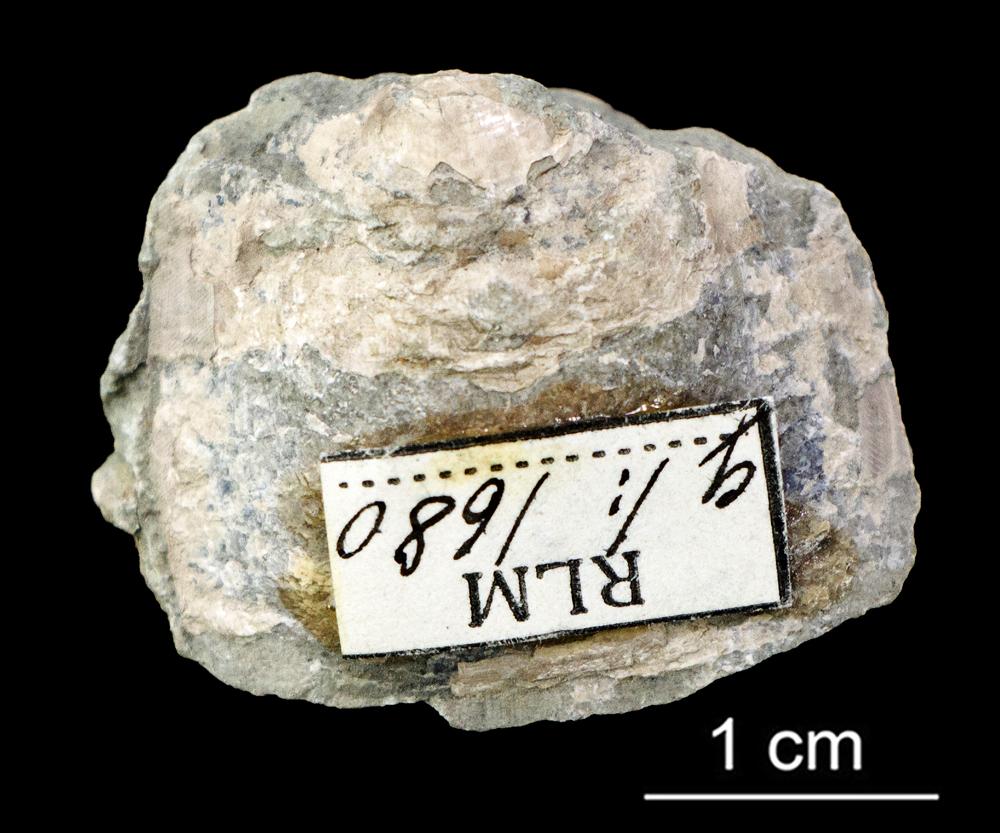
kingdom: Animalia
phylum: Brachiopoda
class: Lingulata
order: Lingulida
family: Zhanatellidae
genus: Thysanotos
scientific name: Thysanotos
